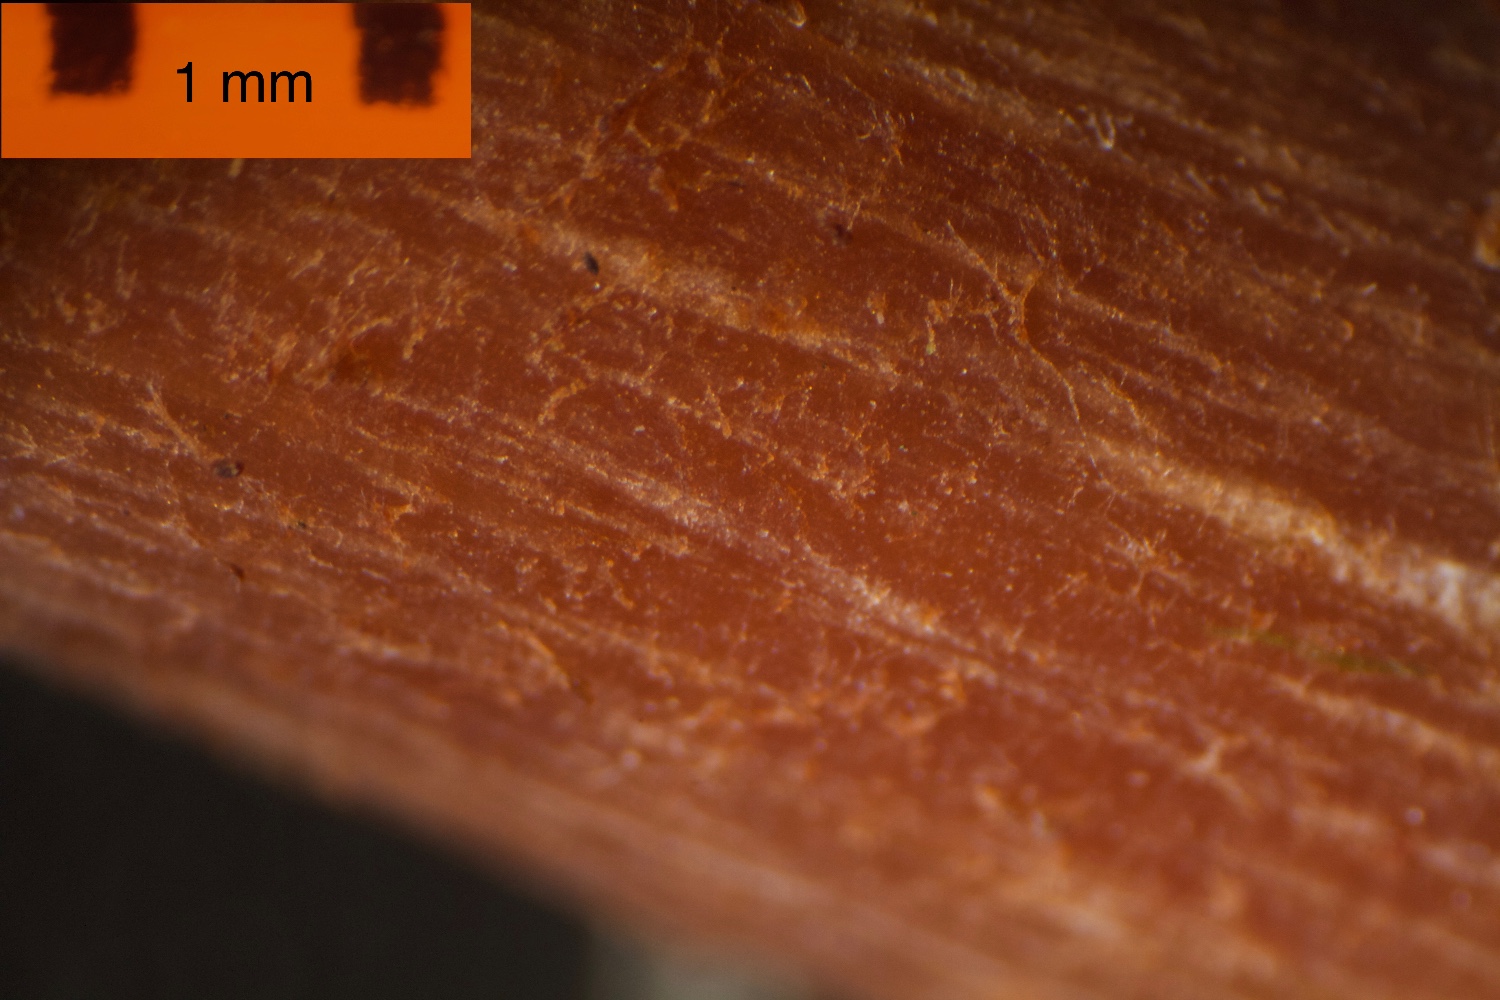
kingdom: Fungi
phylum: Basidiomycota
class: Agaricomycetes
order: Agaricales
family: Hydnangiaceae
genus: Laccaria
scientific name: Laccaria laccata
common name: rød ametysthat
